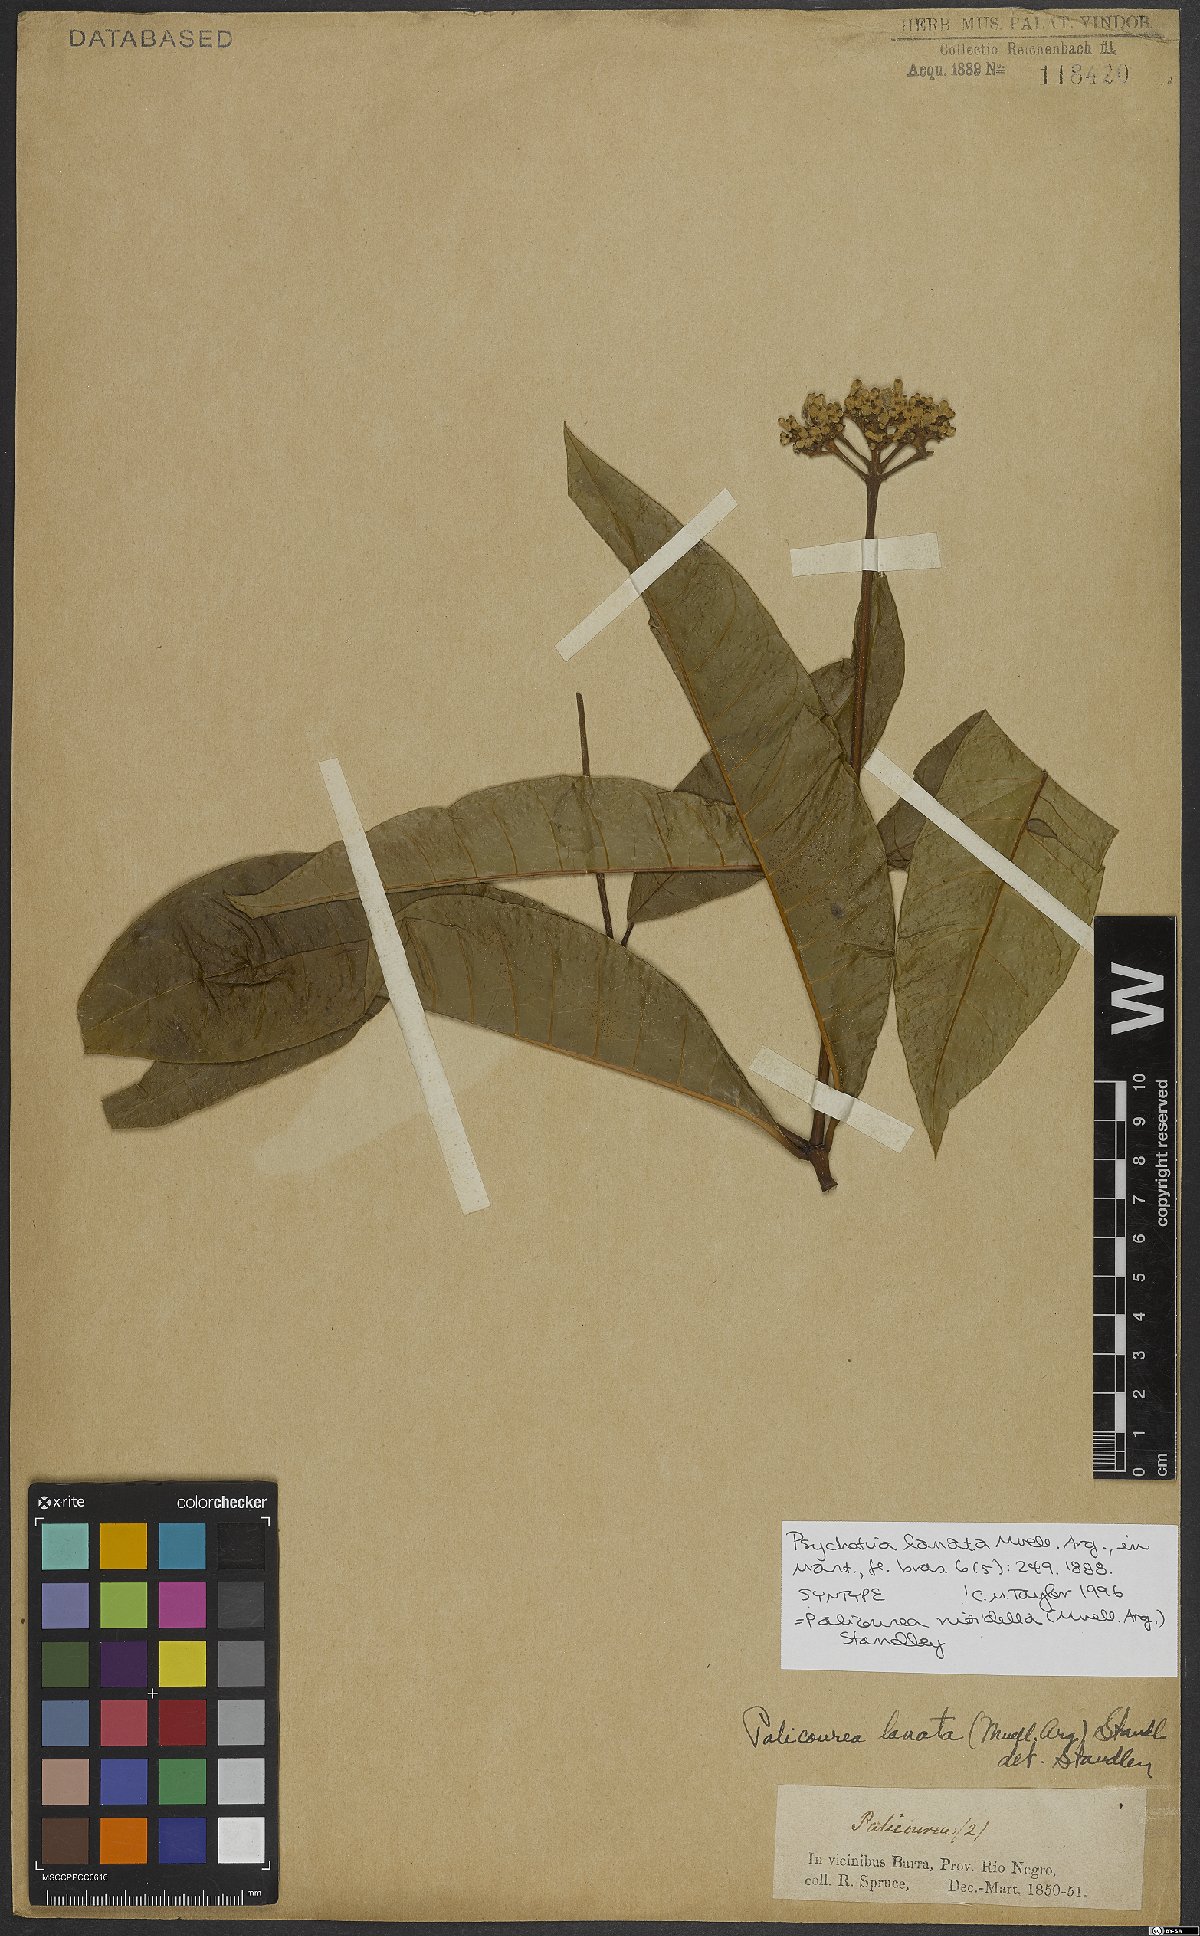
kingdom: Plantae
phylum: Tracheophyta
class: Magnoliopsida
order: Gentianales
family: Rubiaceae
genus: Palicourea
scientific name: Palicourea nitidella
